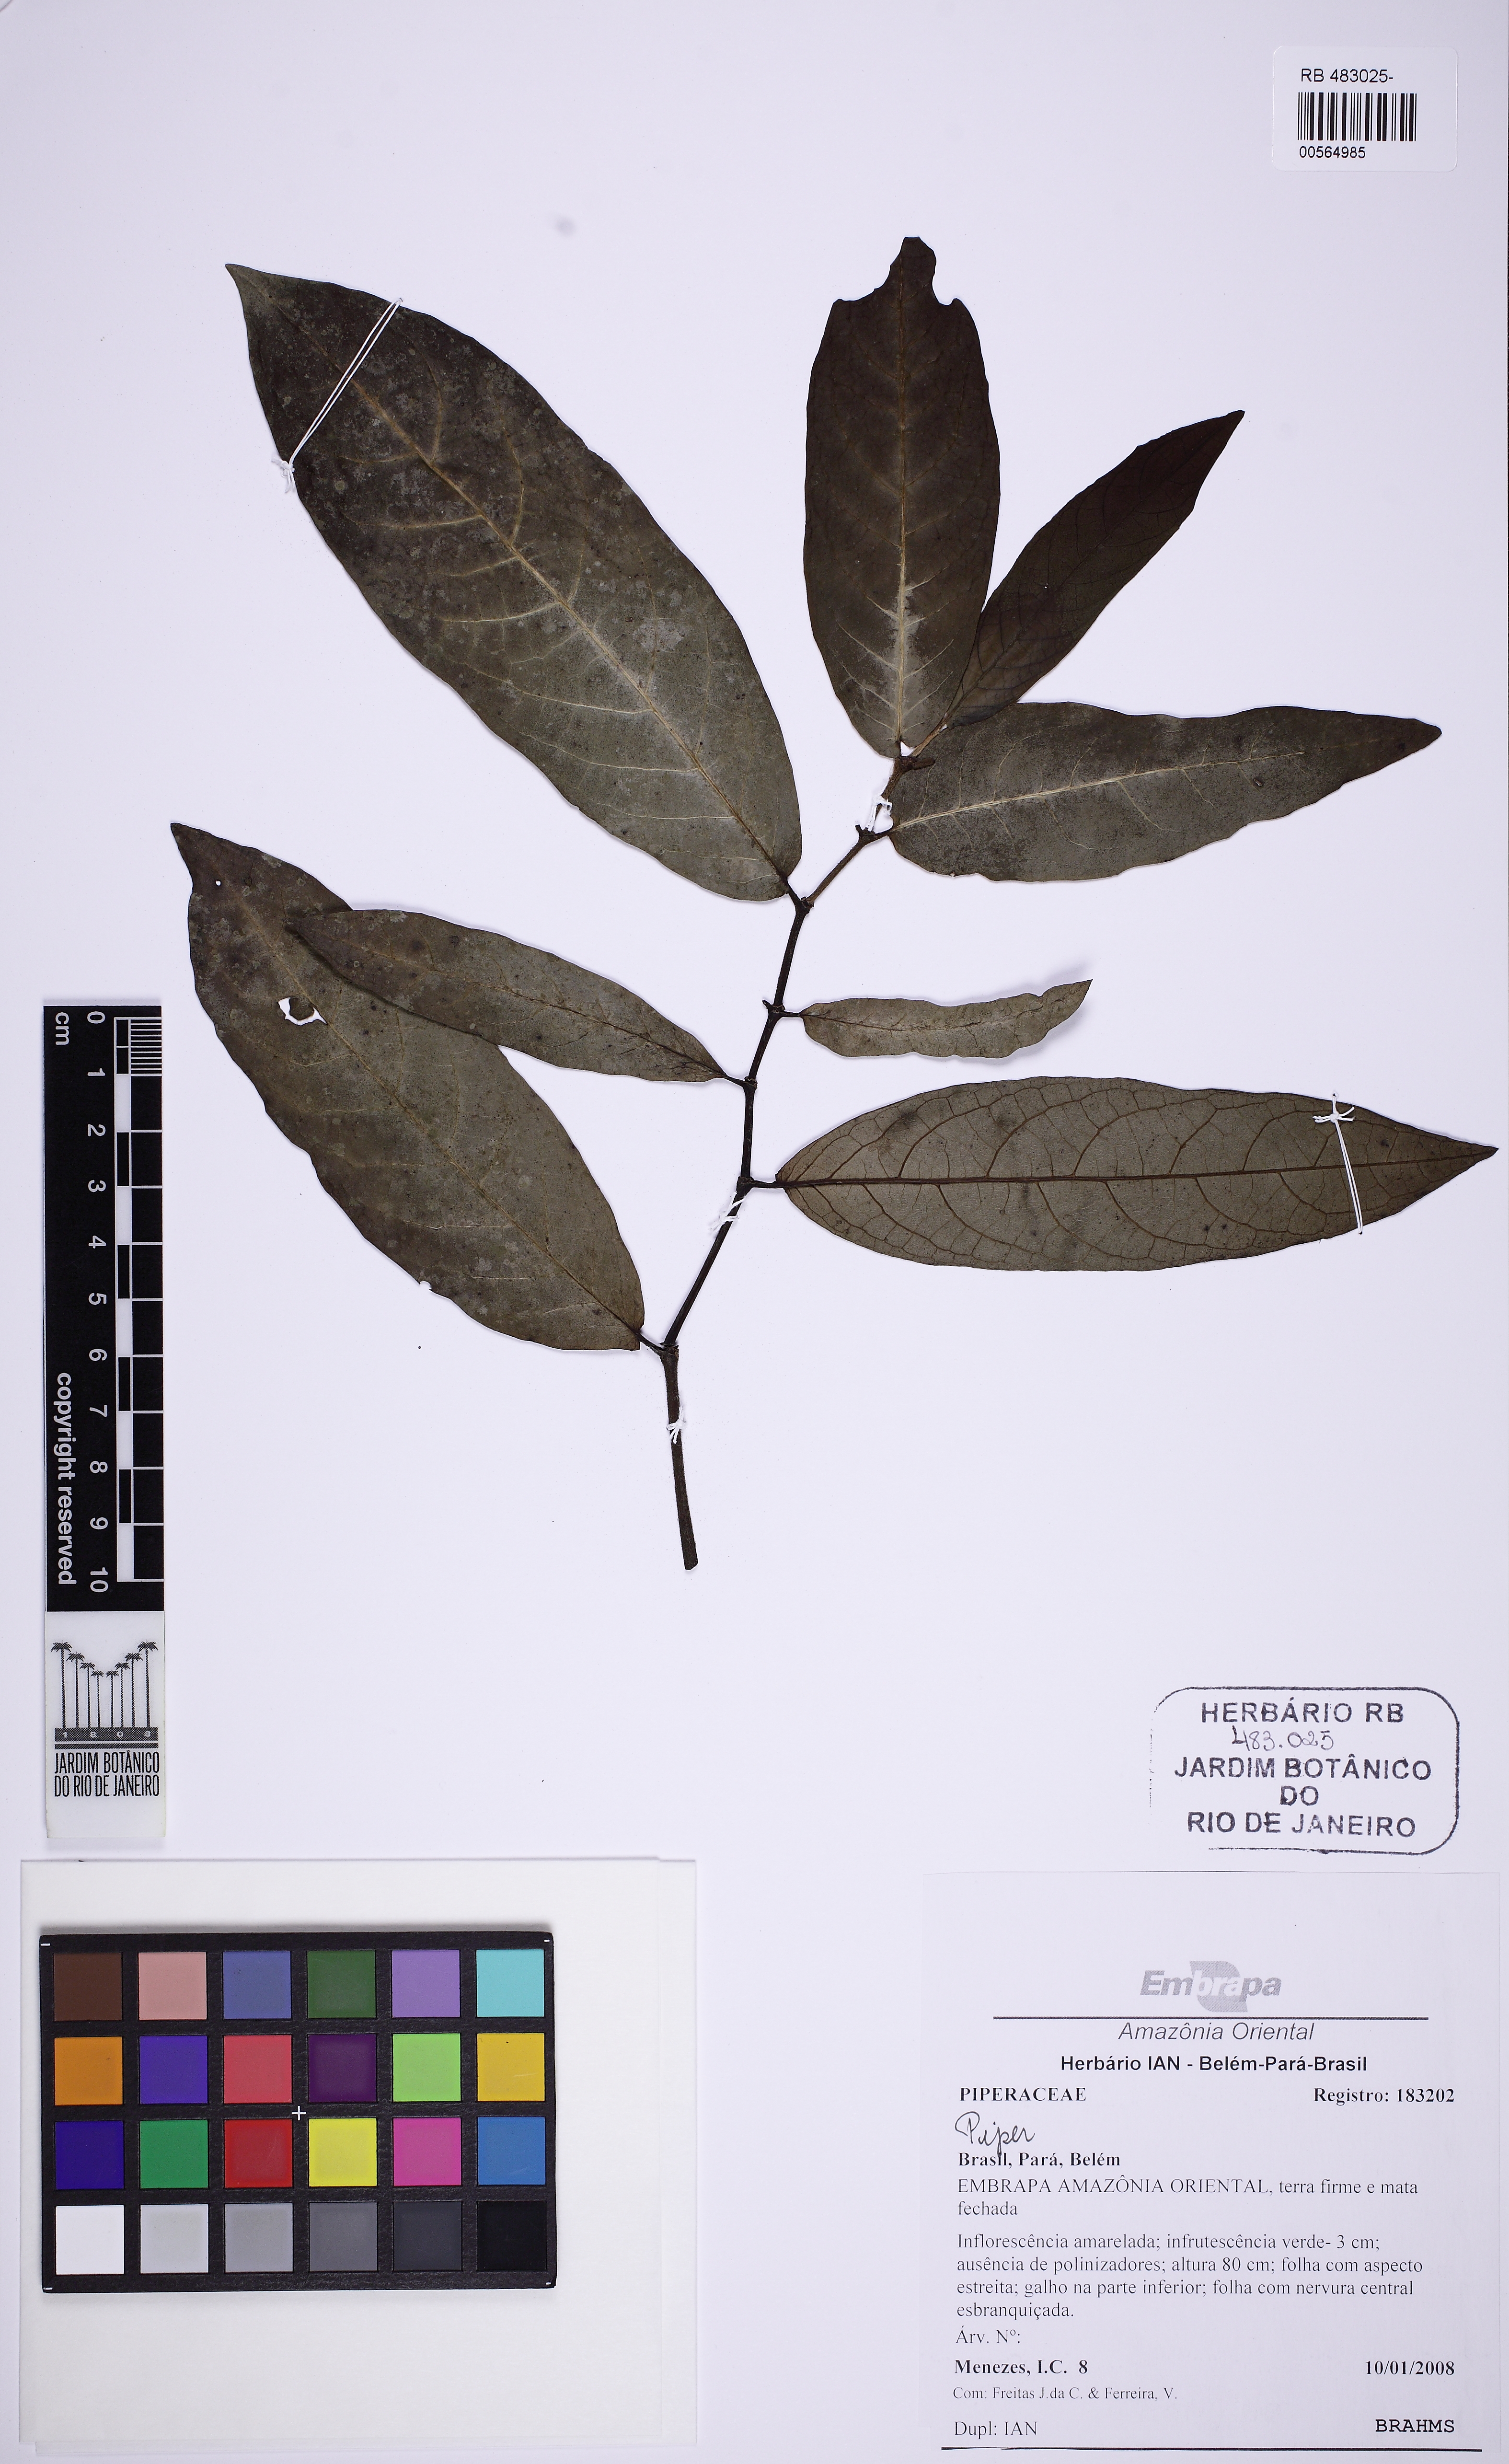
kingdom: Plantae
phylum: Tracheophyta
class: Magnoliopsida
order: Piperales
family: Piperaceae
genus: Peperomia
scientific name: Peperomia
